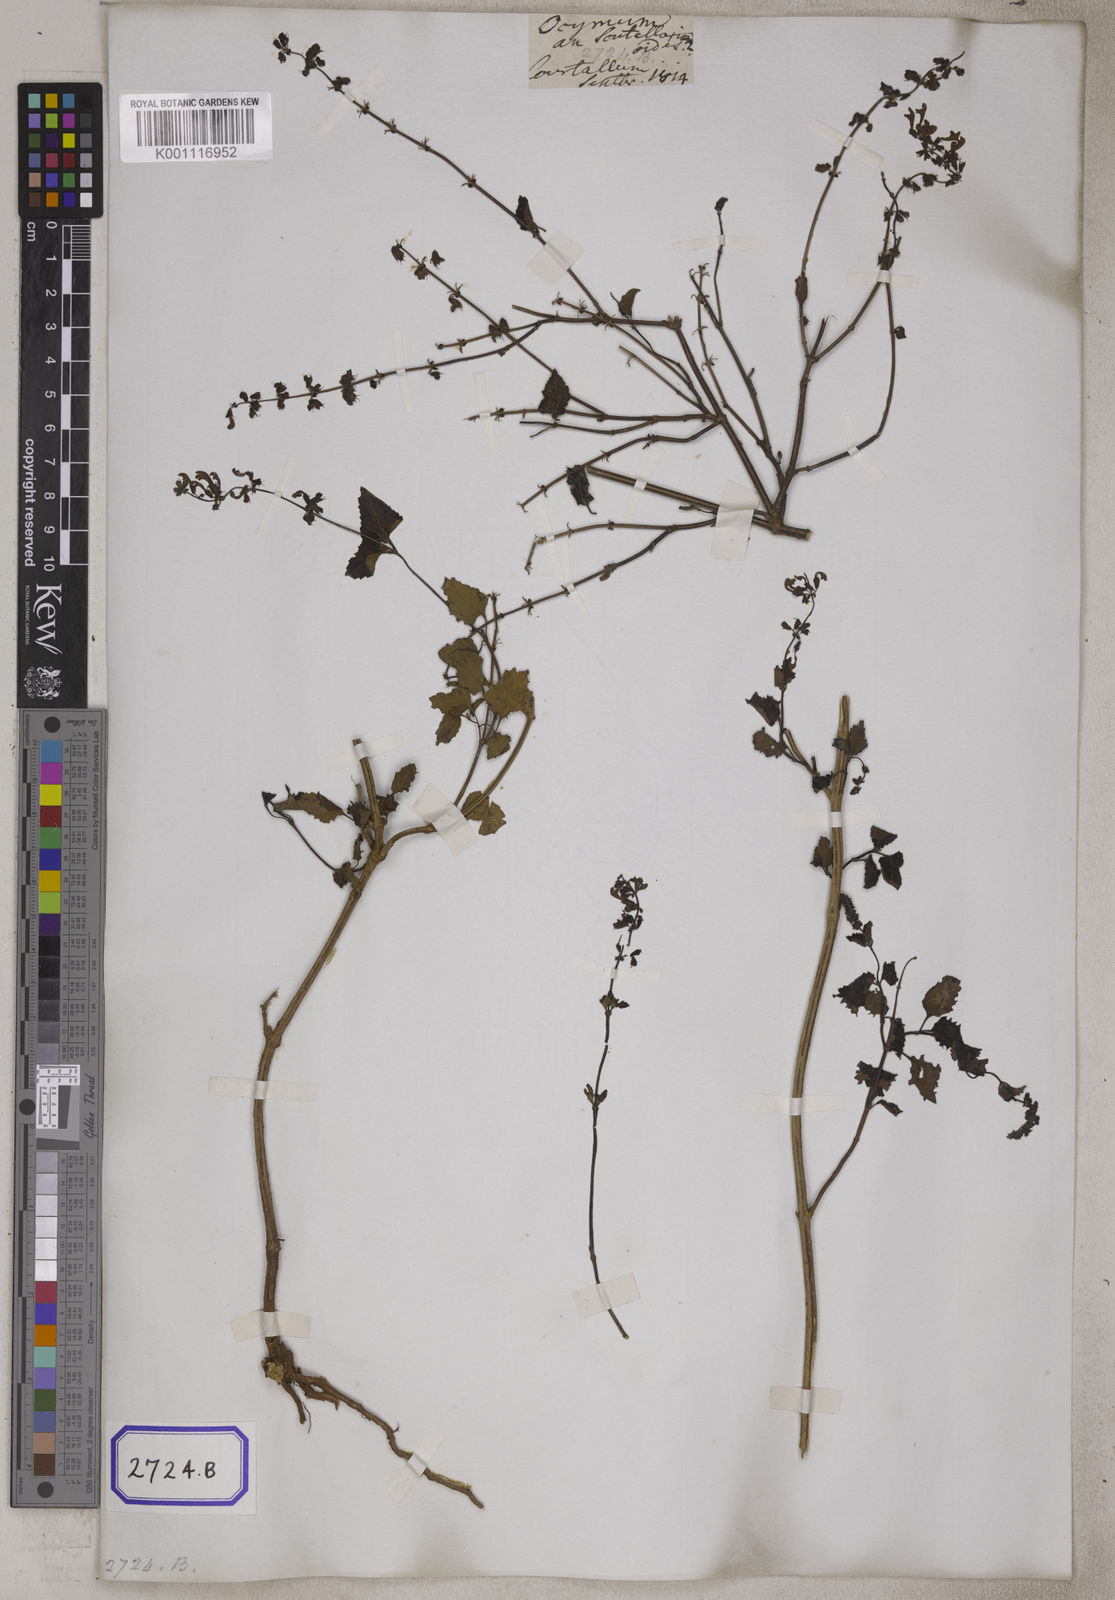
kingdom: Plantae
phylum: Tracheophyta
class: Magnoliopsida
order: Lamiales
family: Lamiaceae
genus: Orthosiphon
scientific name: Orthosiphon thymiflorus
